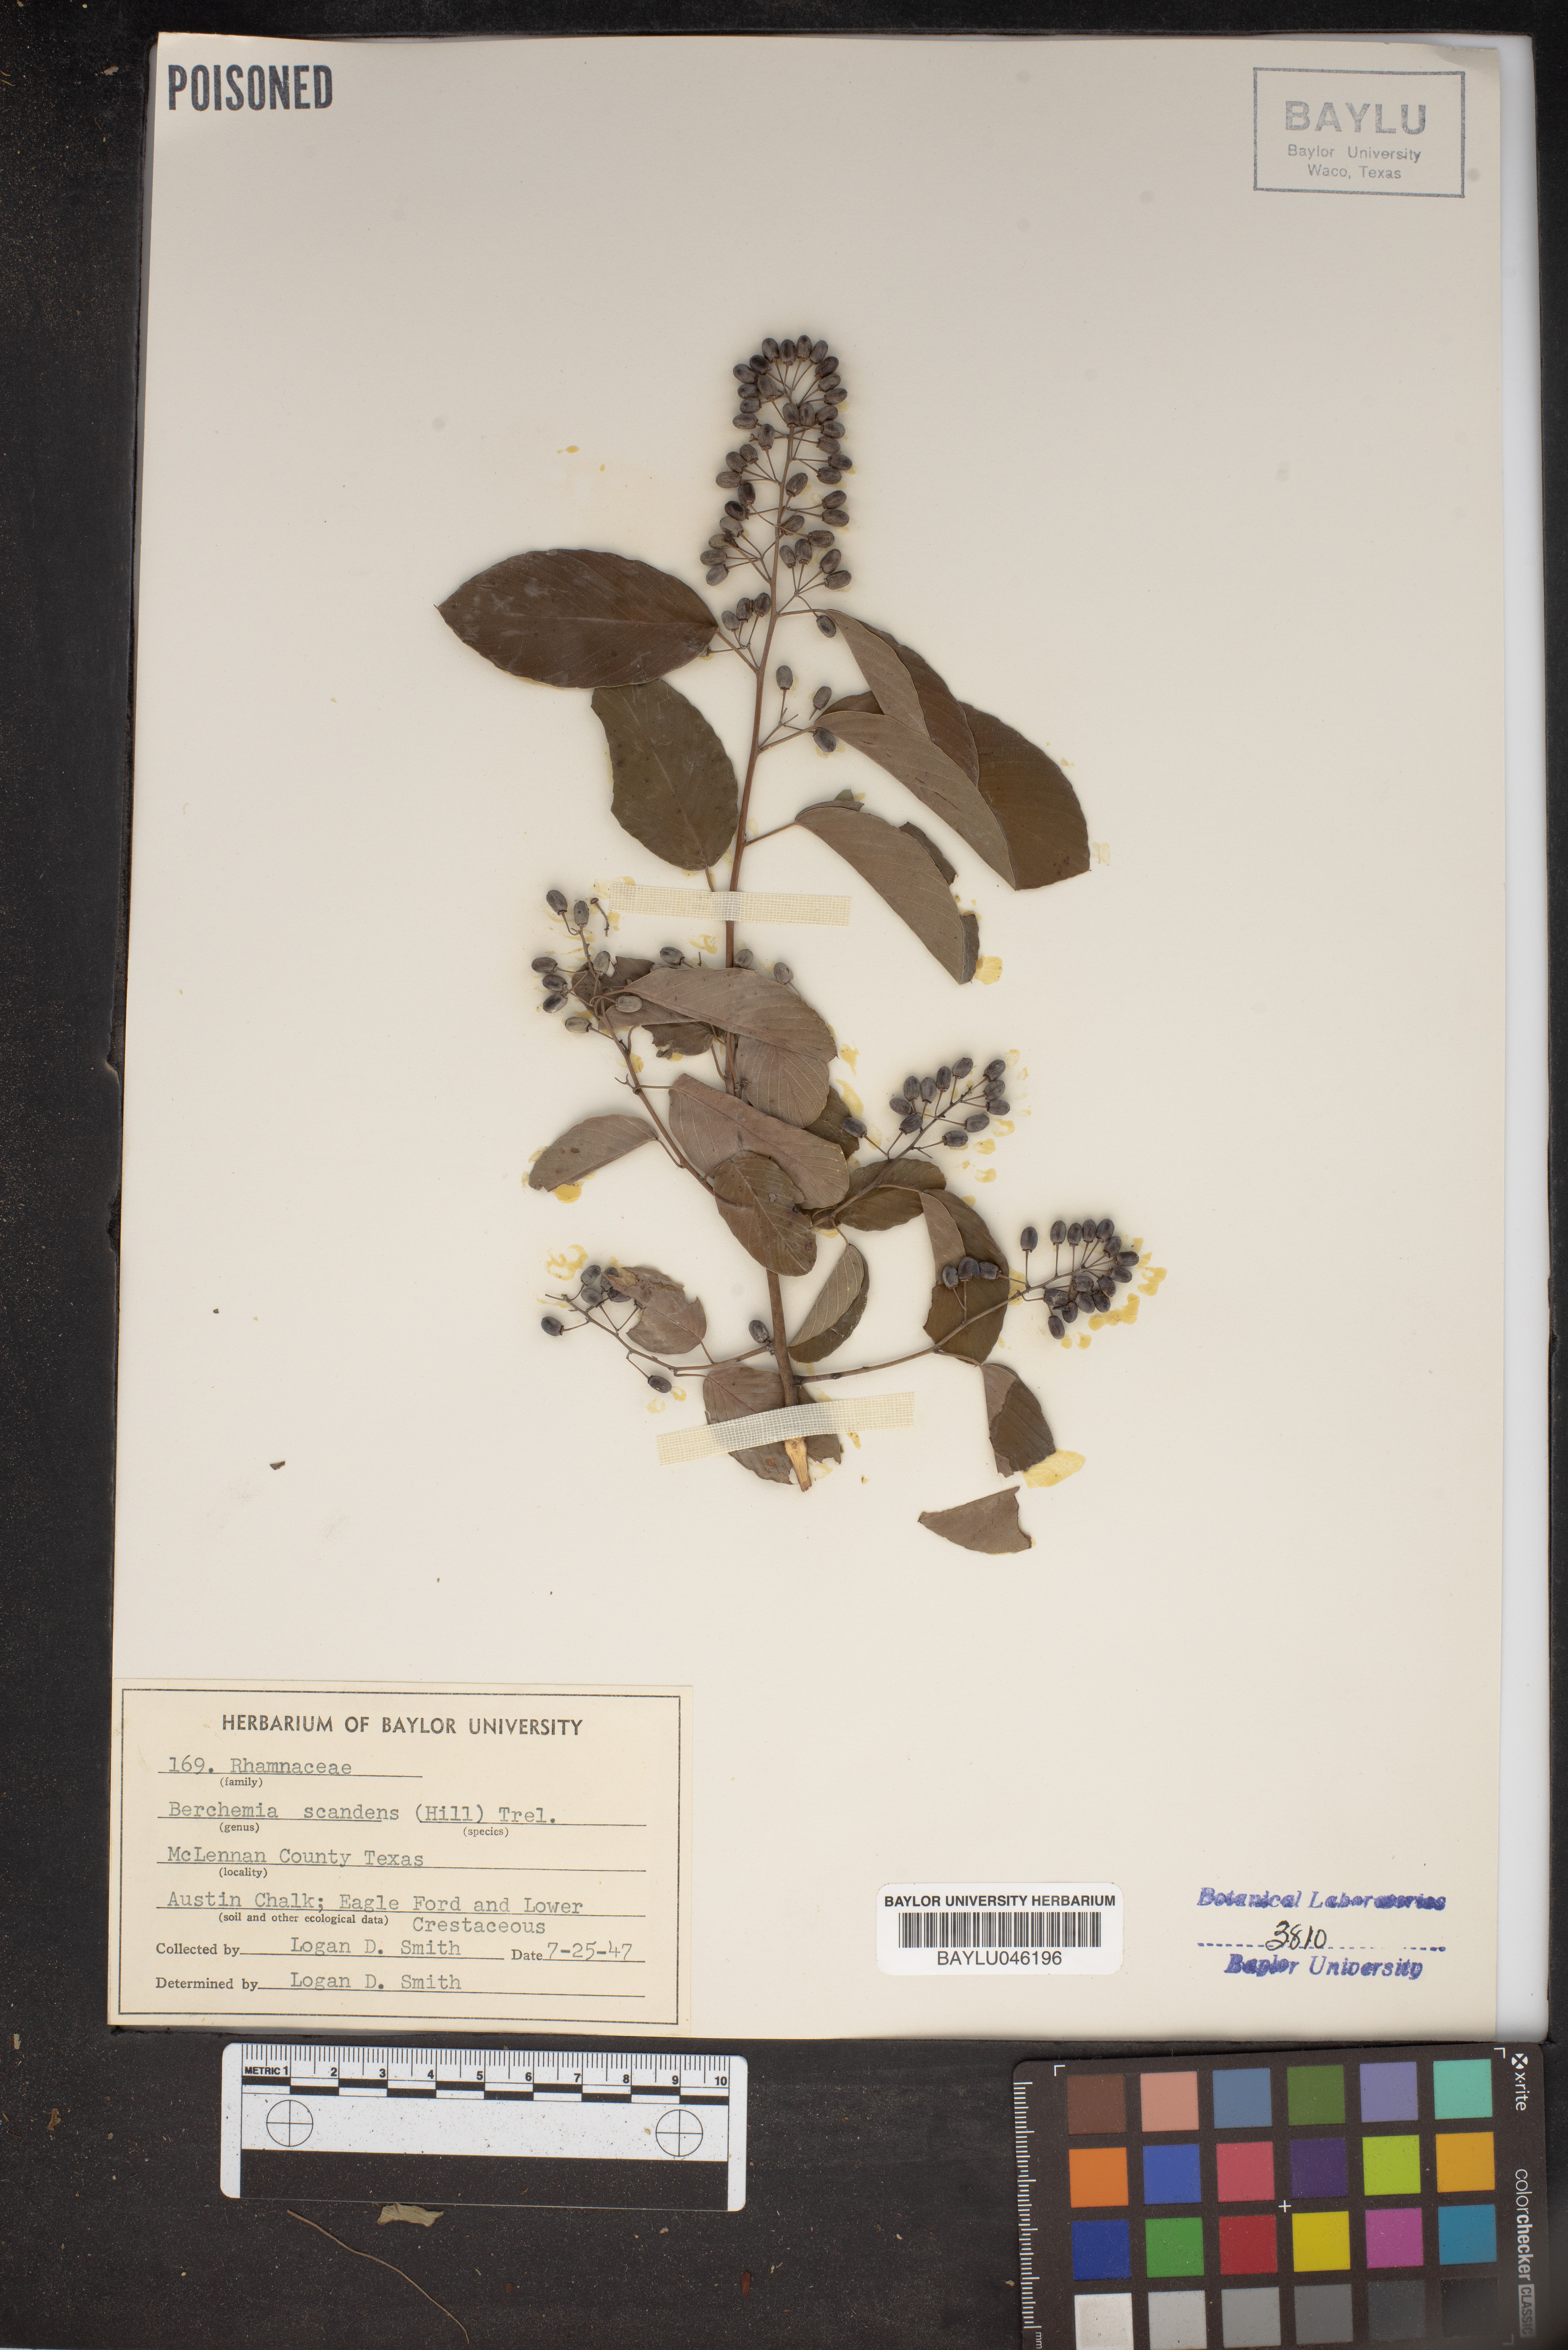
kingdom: Plantae
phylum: Tracheophyta
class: Magnoliopsida
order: Rosales
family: Rhamnaceae
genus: Berchemia
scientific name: Berchemia scandens
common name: Supplejack
